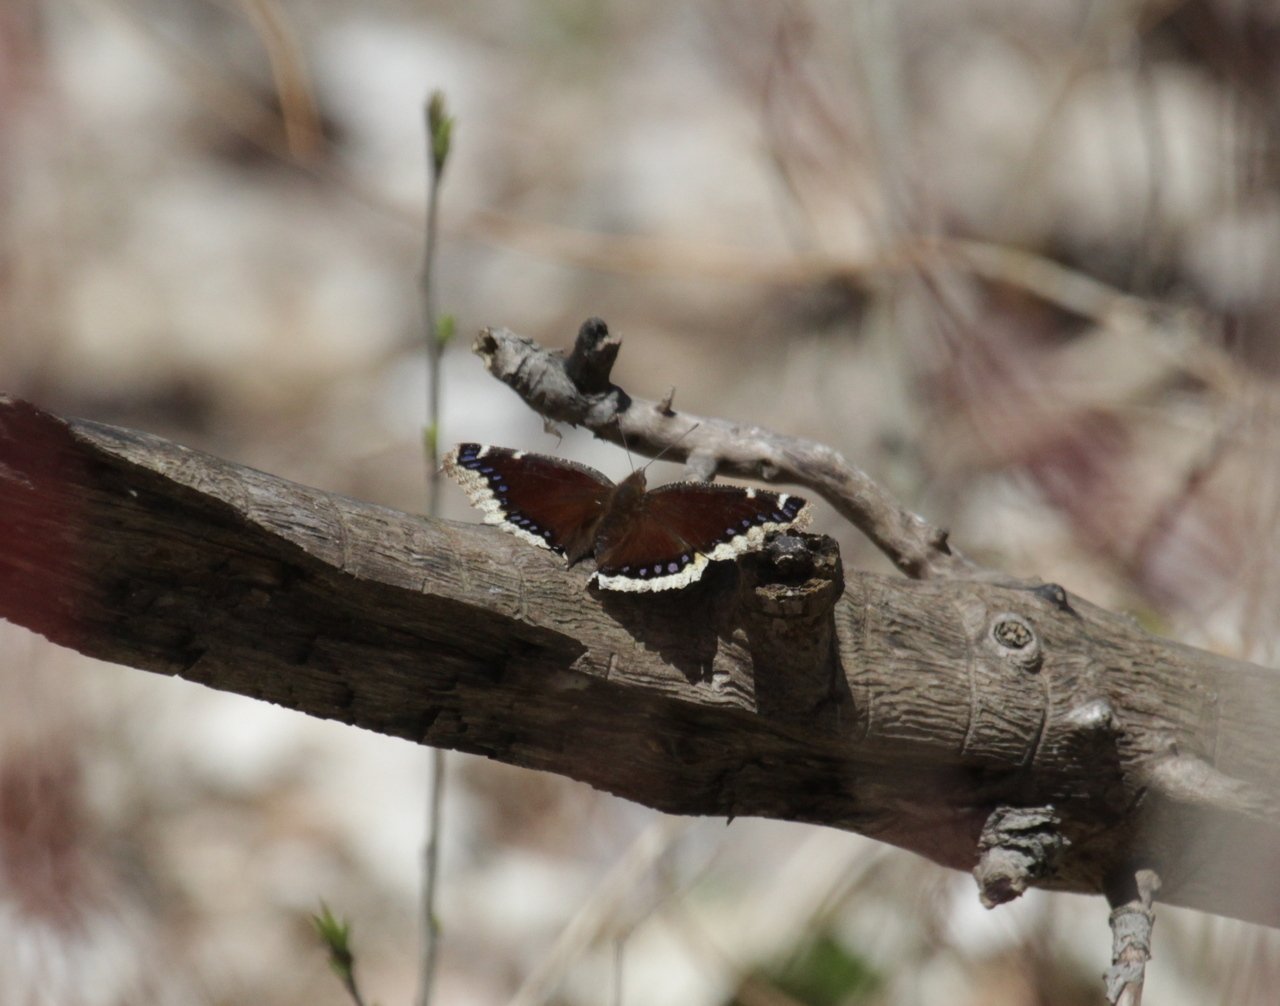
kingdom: Animalia
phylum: Arthropoda
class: Insecta
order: Lepidoptera
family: Nymphalidae
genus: Nymphalis
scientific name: Nymphalis antiopa
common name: Mourning Cloak
